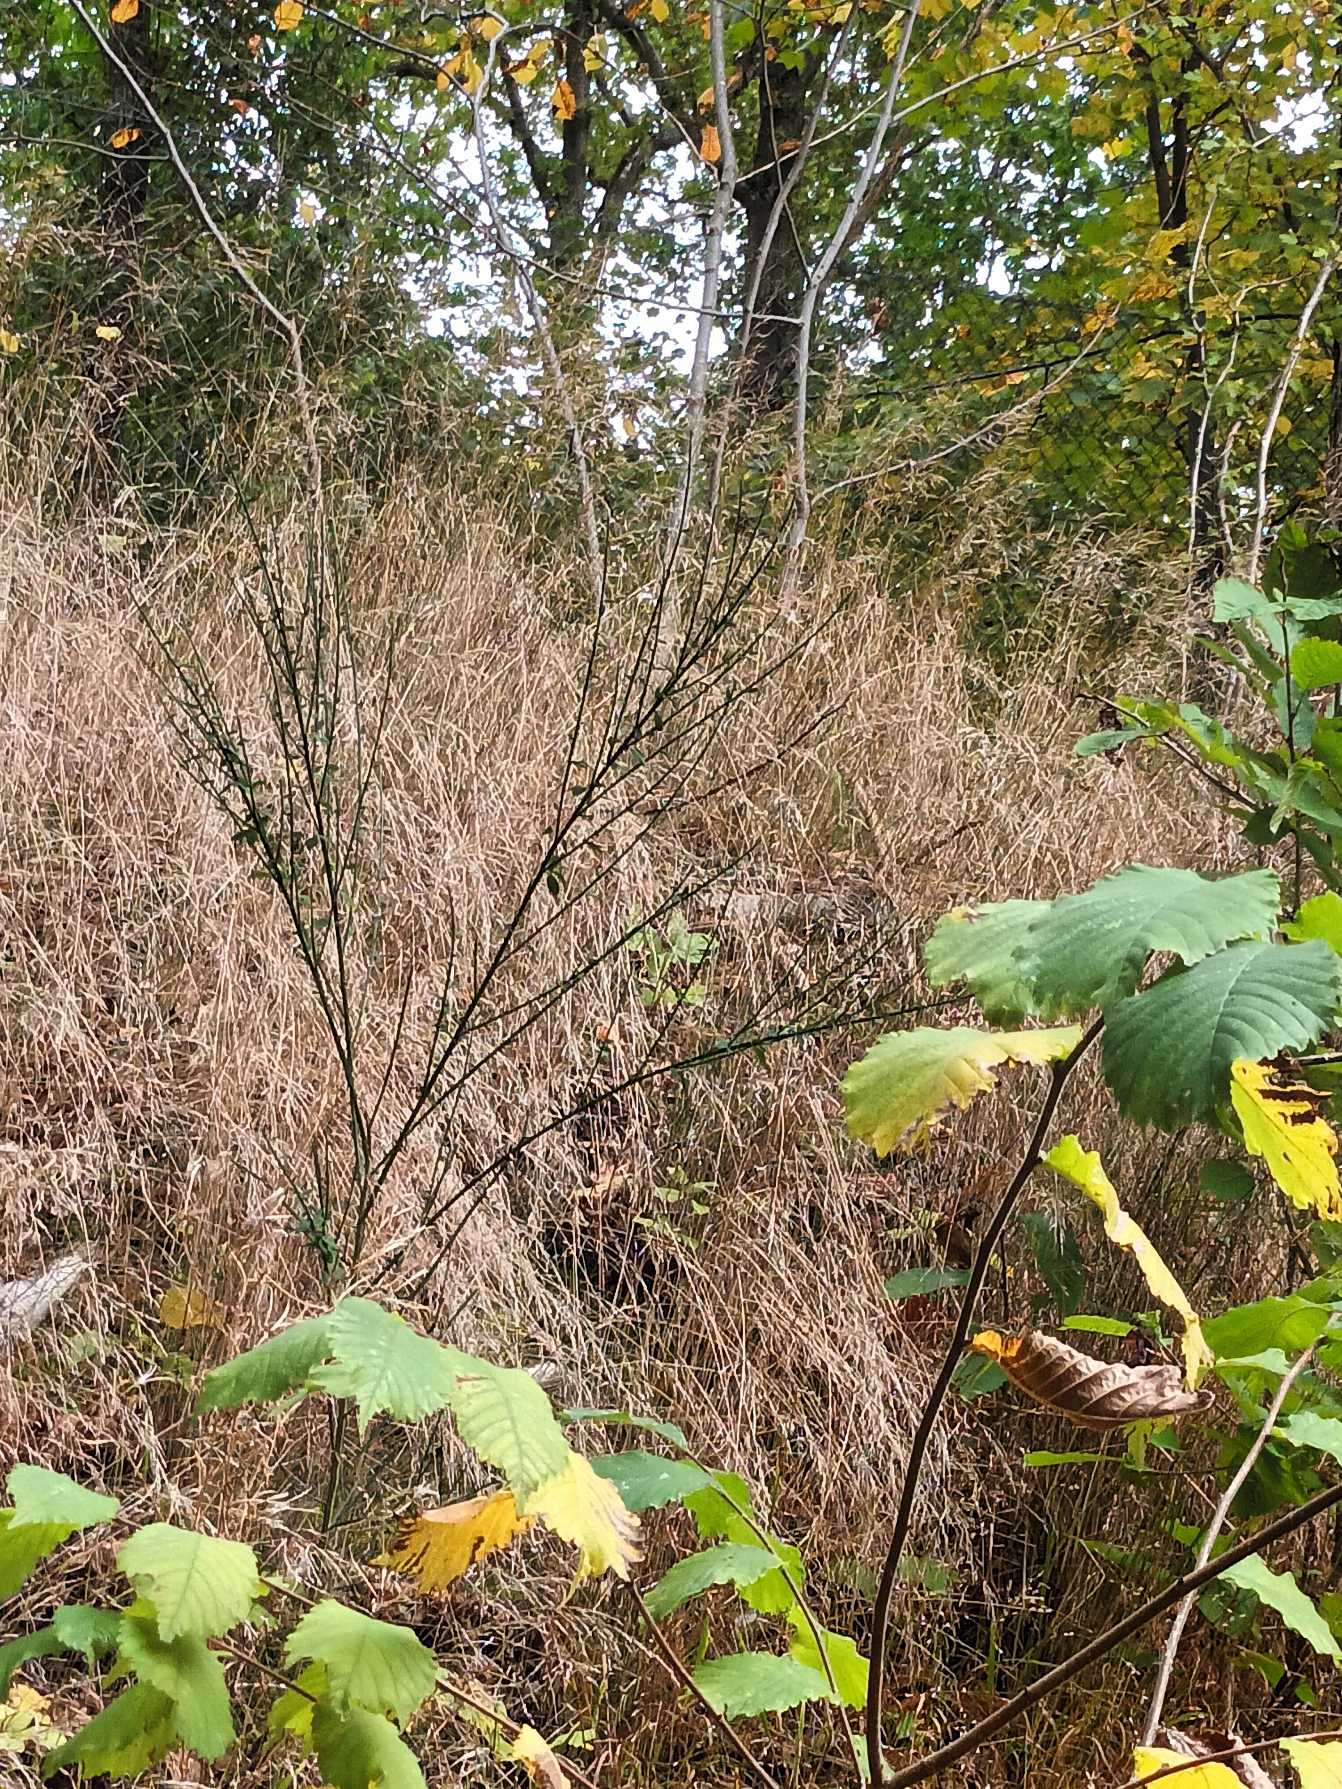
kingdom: Plantae
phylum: Tracheophyta
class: Magnoliopsida
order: Fabales
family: Fabaceae
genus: Cytisus
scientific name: Cytisus scoparius
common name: Almindelig gyvel
